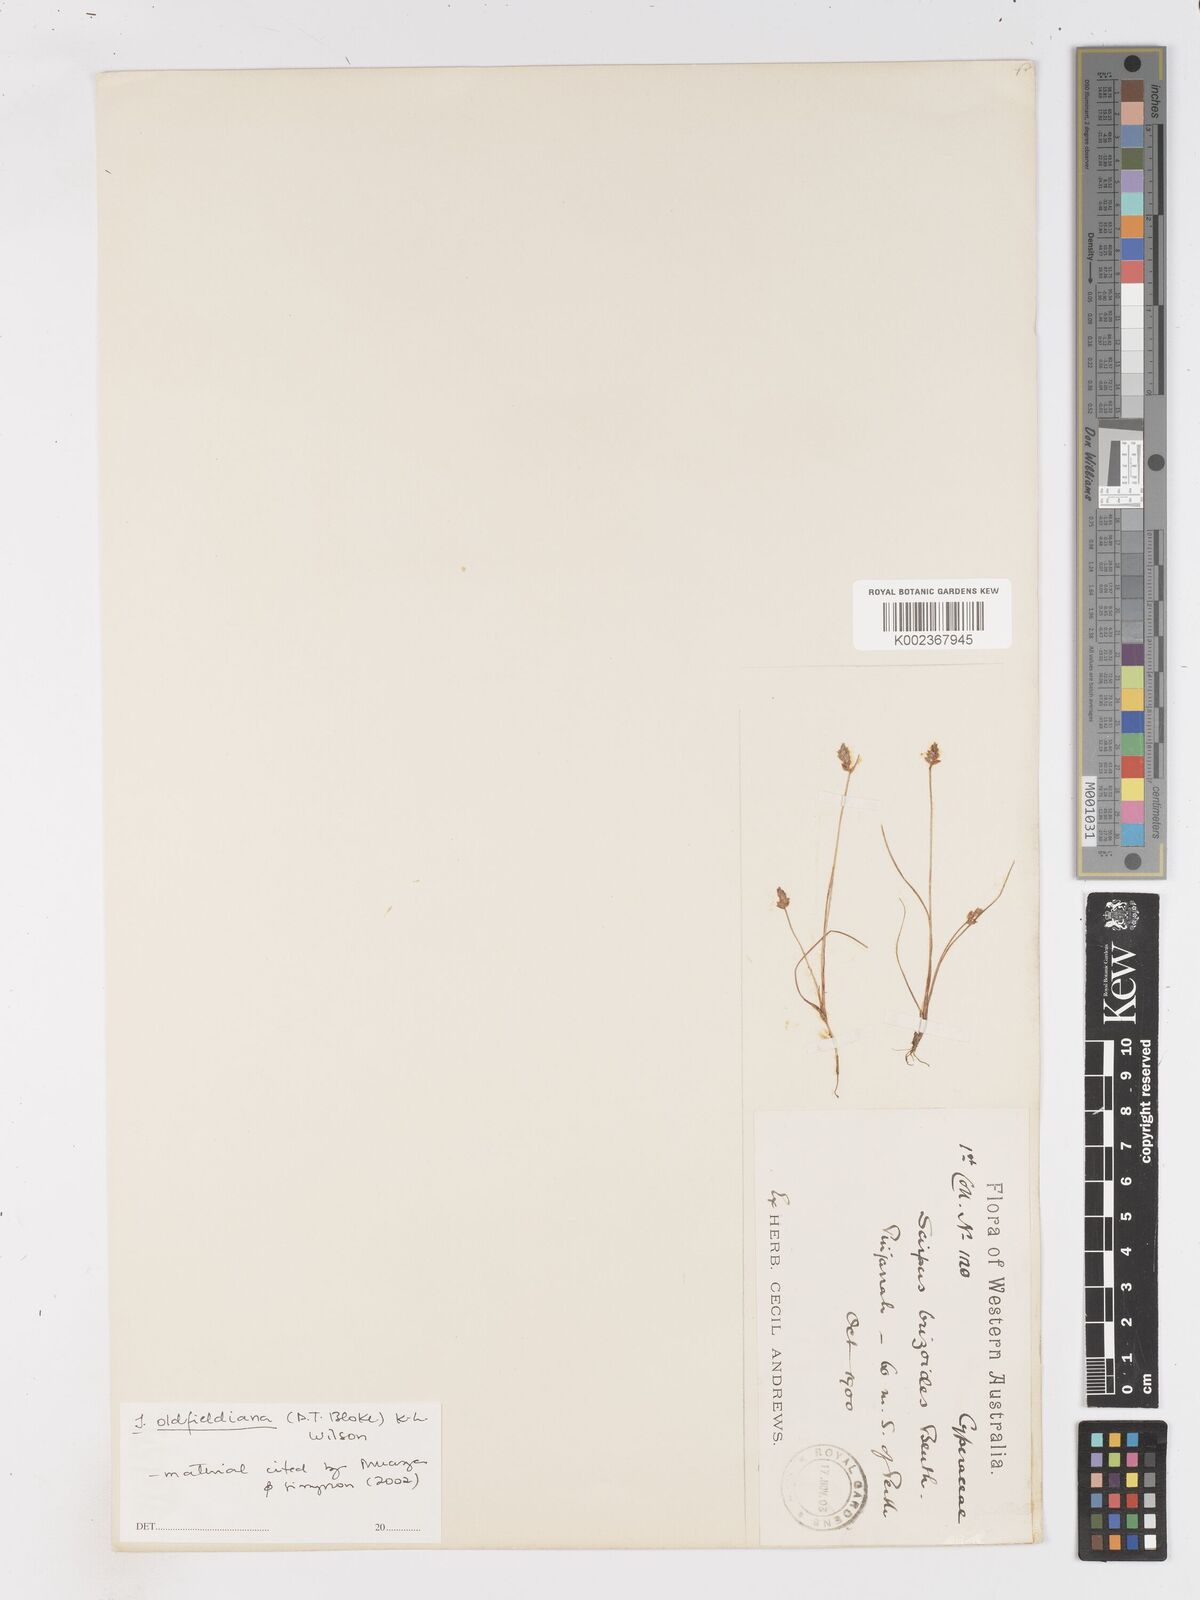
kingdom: Plantae
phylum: Tracheophyta
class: Liliopsida
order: Poales
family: Cyperaceae
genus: Isolepis
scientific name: Isolepis oldfieldiana
